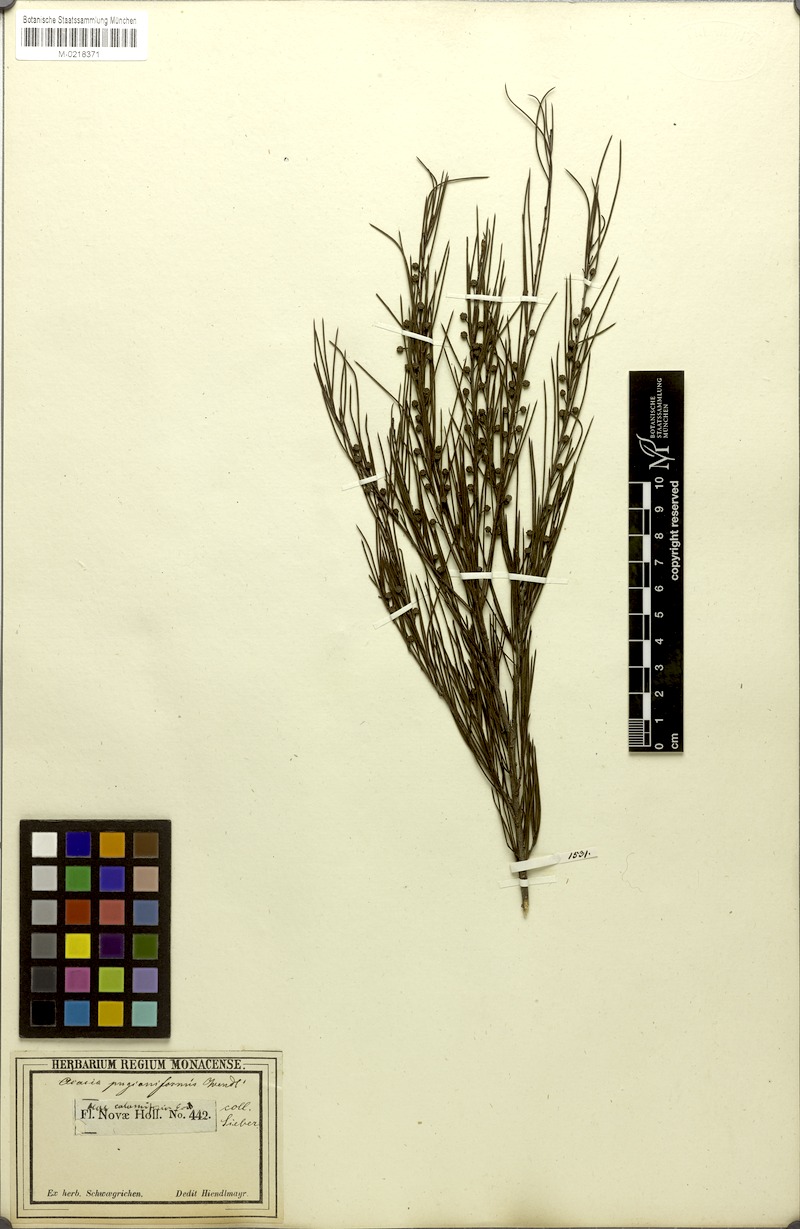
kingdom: Plantae
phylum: Tracheophyta
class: Magnoliopsida
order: Fabales
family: Fabaceae
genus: Acacia
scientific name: Acacia quadrilateralis
